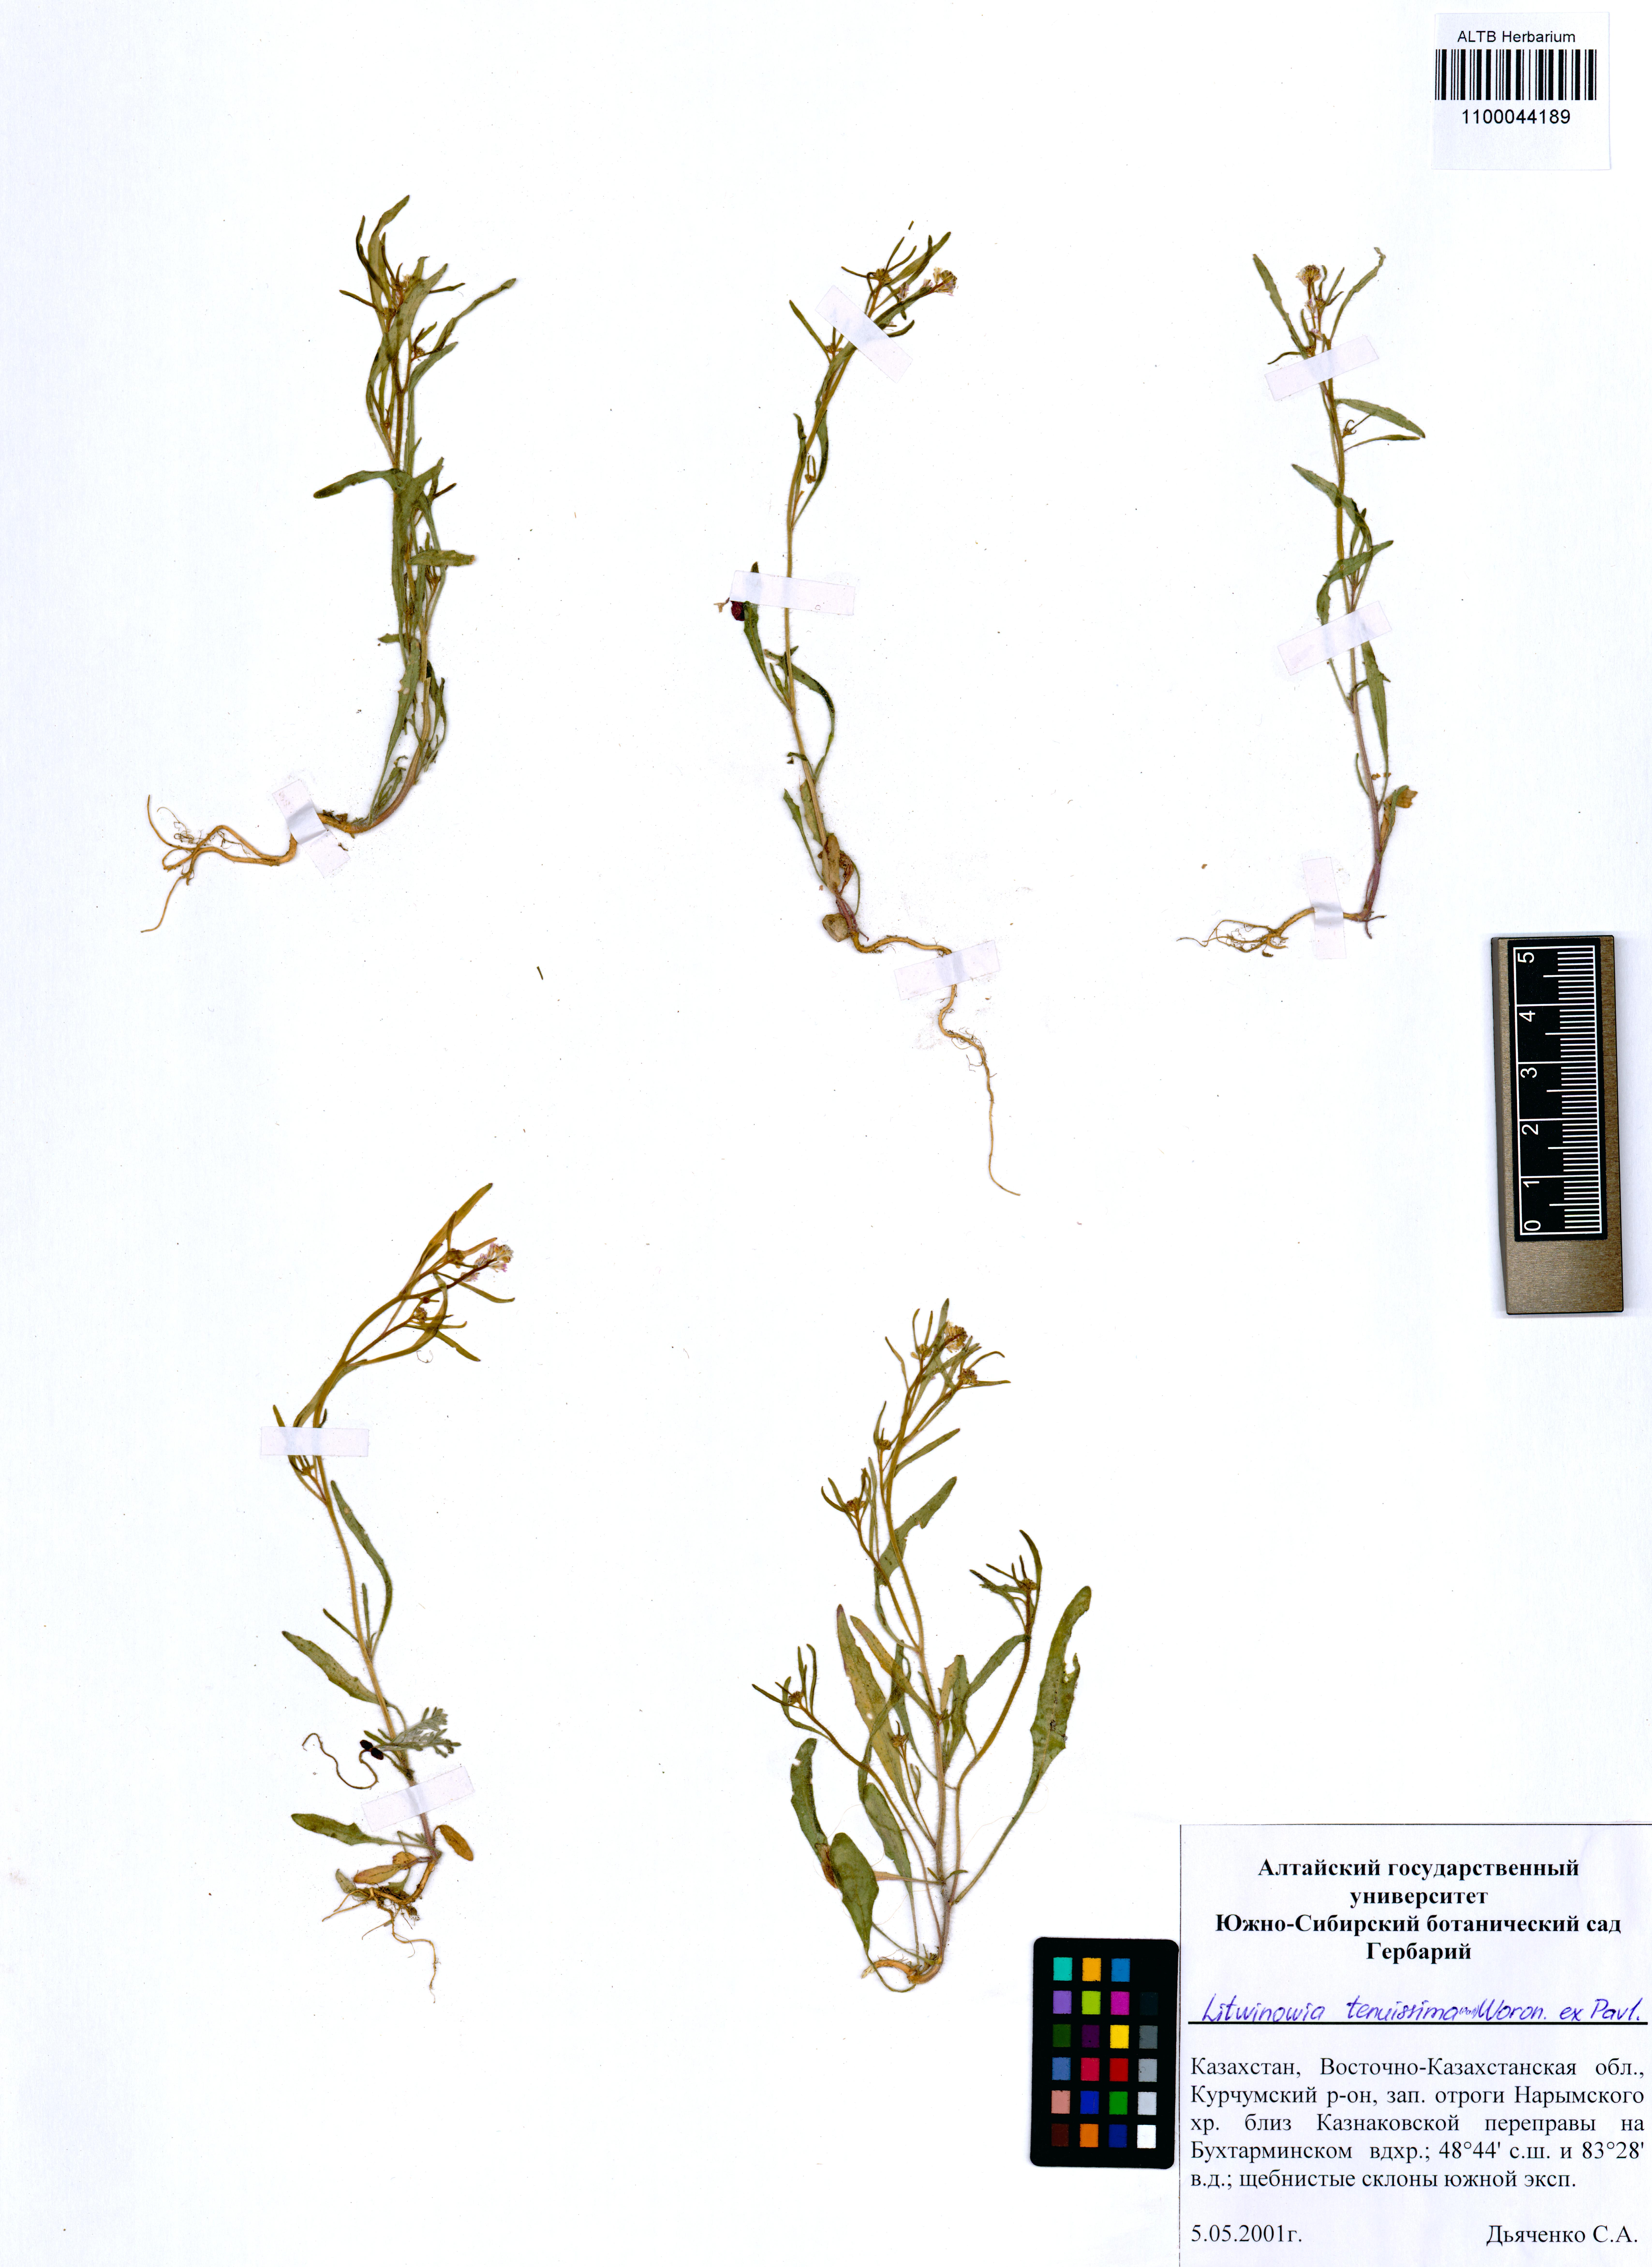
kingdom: Plantae
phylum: Tracheophyta
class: Magnoliopsida
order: Brassicales
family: Brassicaceae
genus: Litwinowia
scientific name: Litwinowia tenuissima
